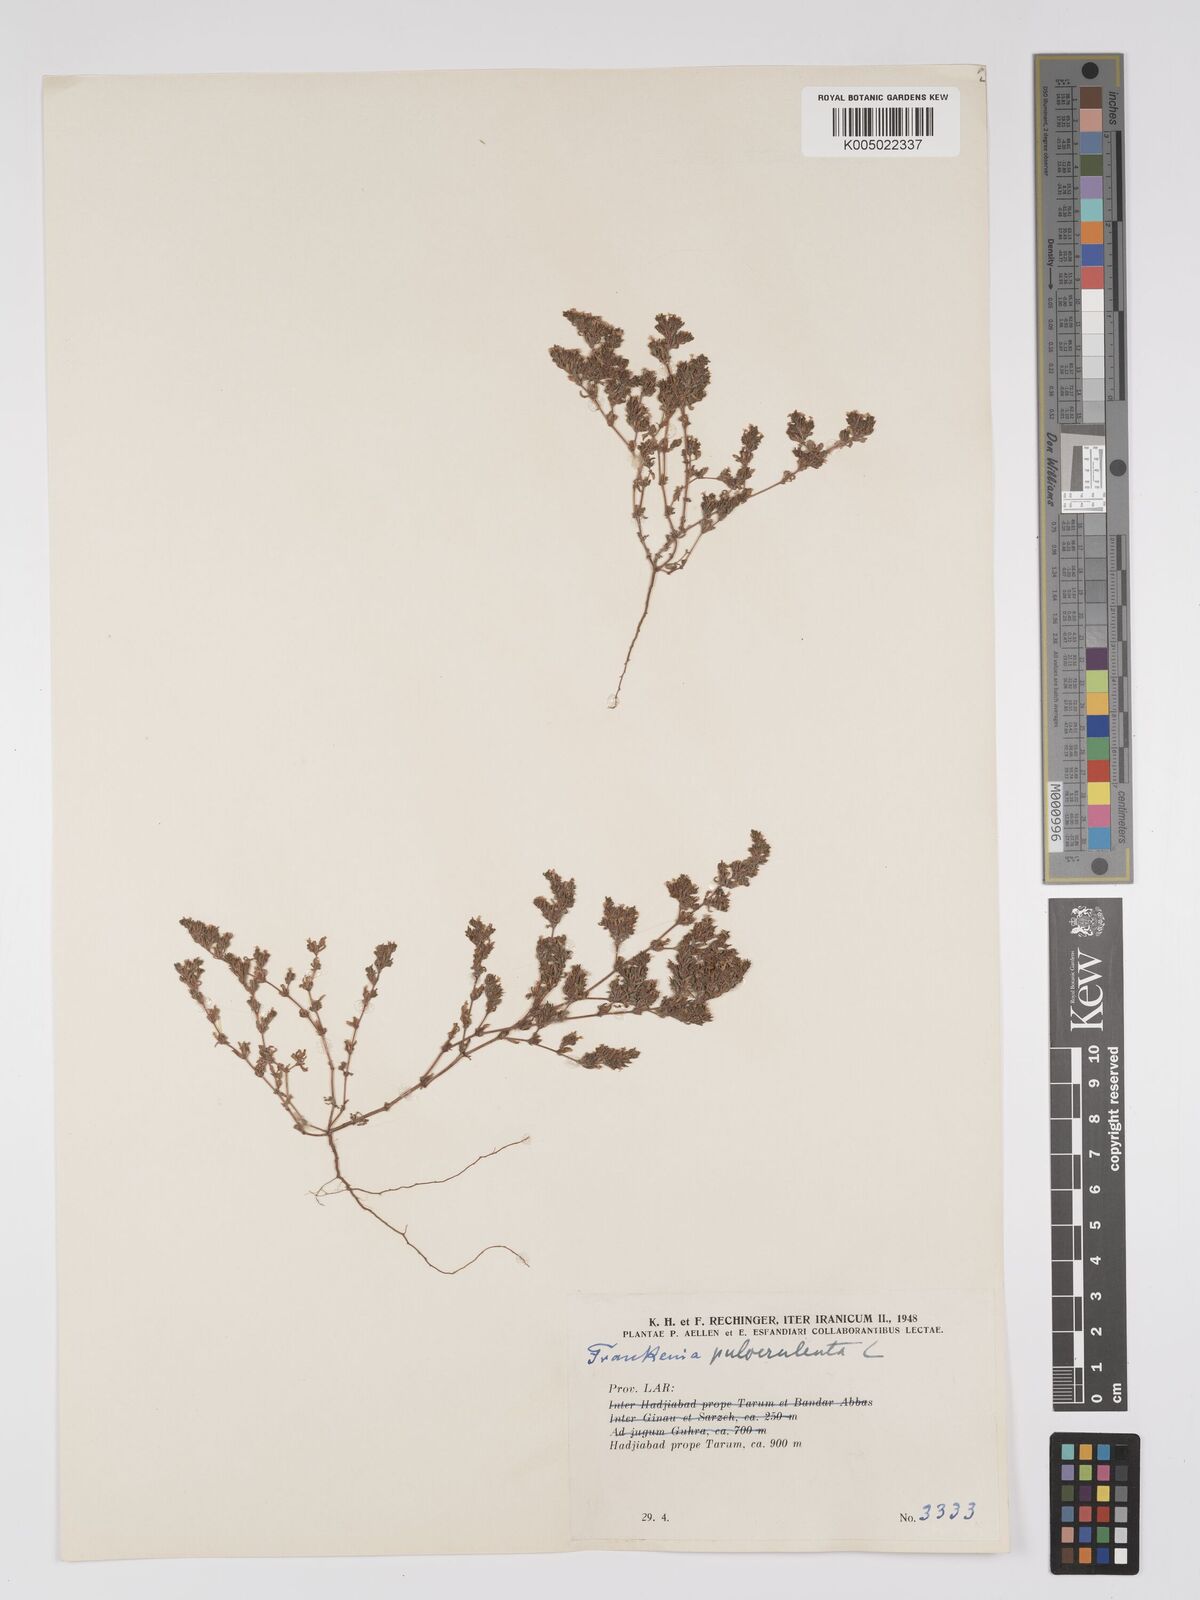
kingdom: Plantae
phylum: Tracheophyta
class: Magnoliopsida
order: Caryophyllales
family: Frankeniaceae
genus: Frankenia
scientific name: Frankenia pulverulenta
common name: European seaheath
